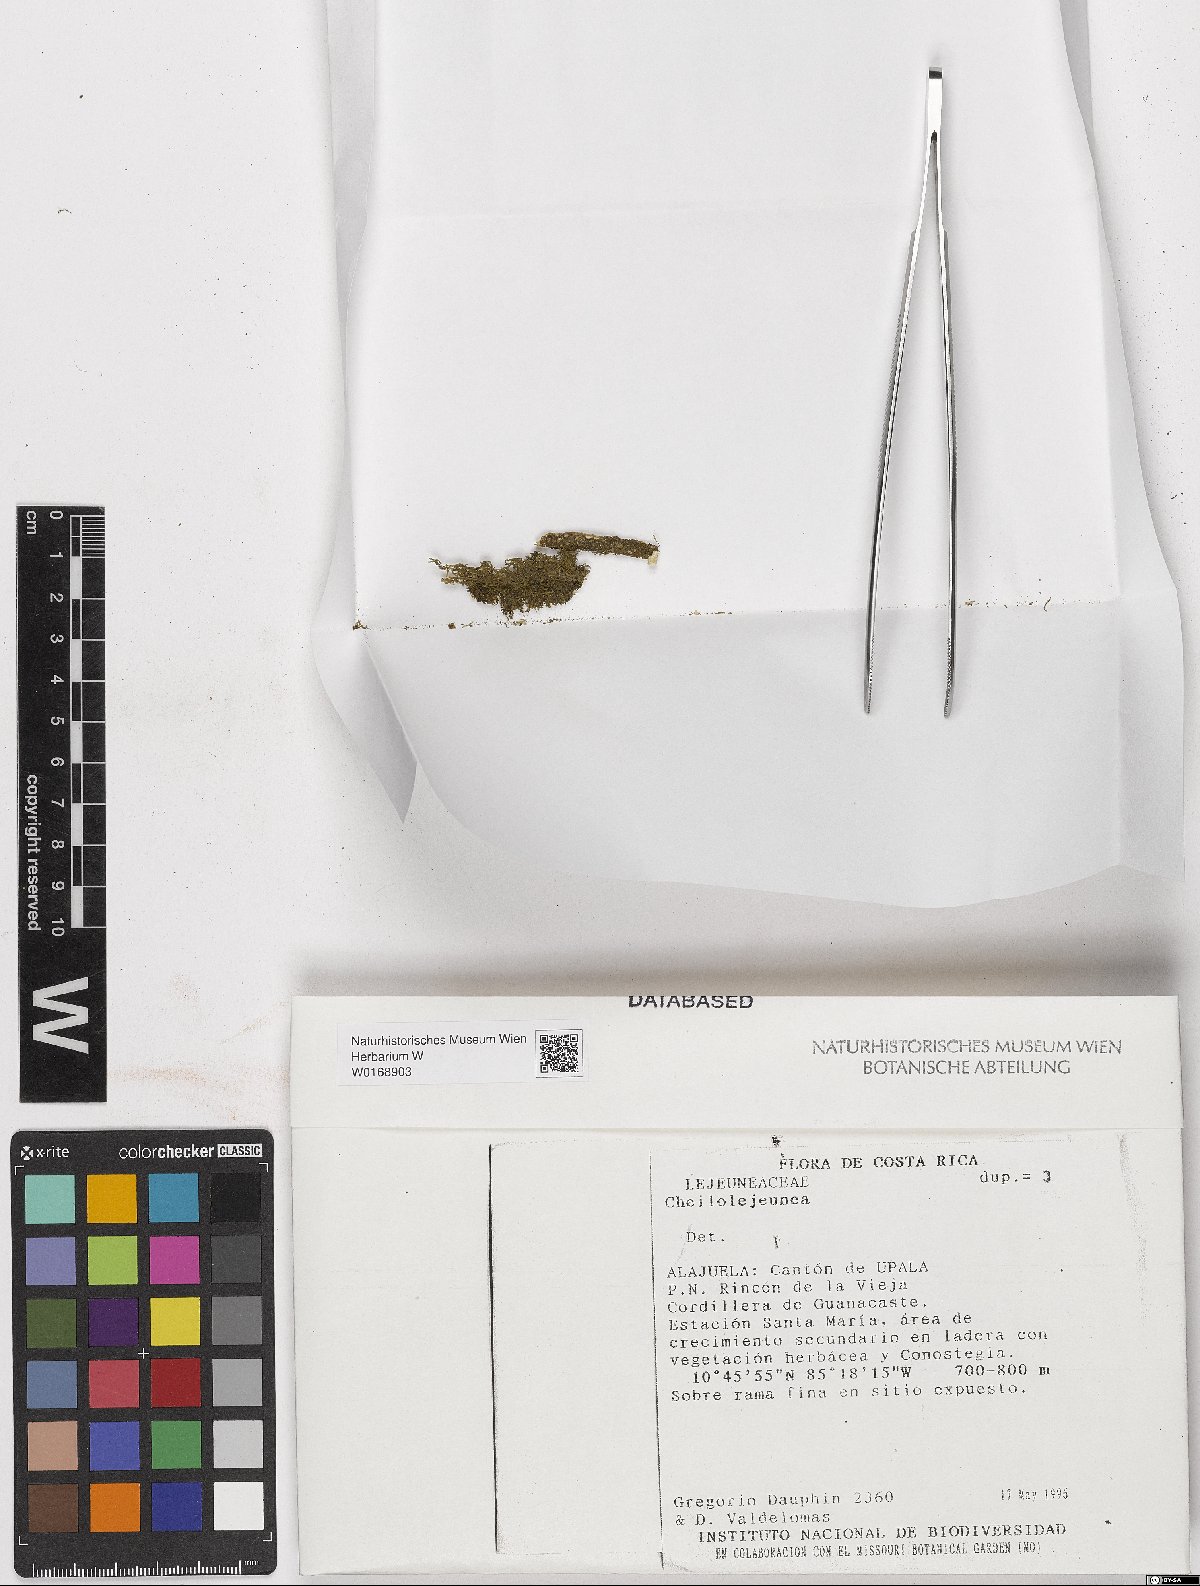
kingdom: Plantae
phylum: Marchantiophyta
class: Jungermanniopsida
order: Porellales
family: Lejeuneaceae
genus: Cheilolejeunea
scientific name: Cheilolejeunea
